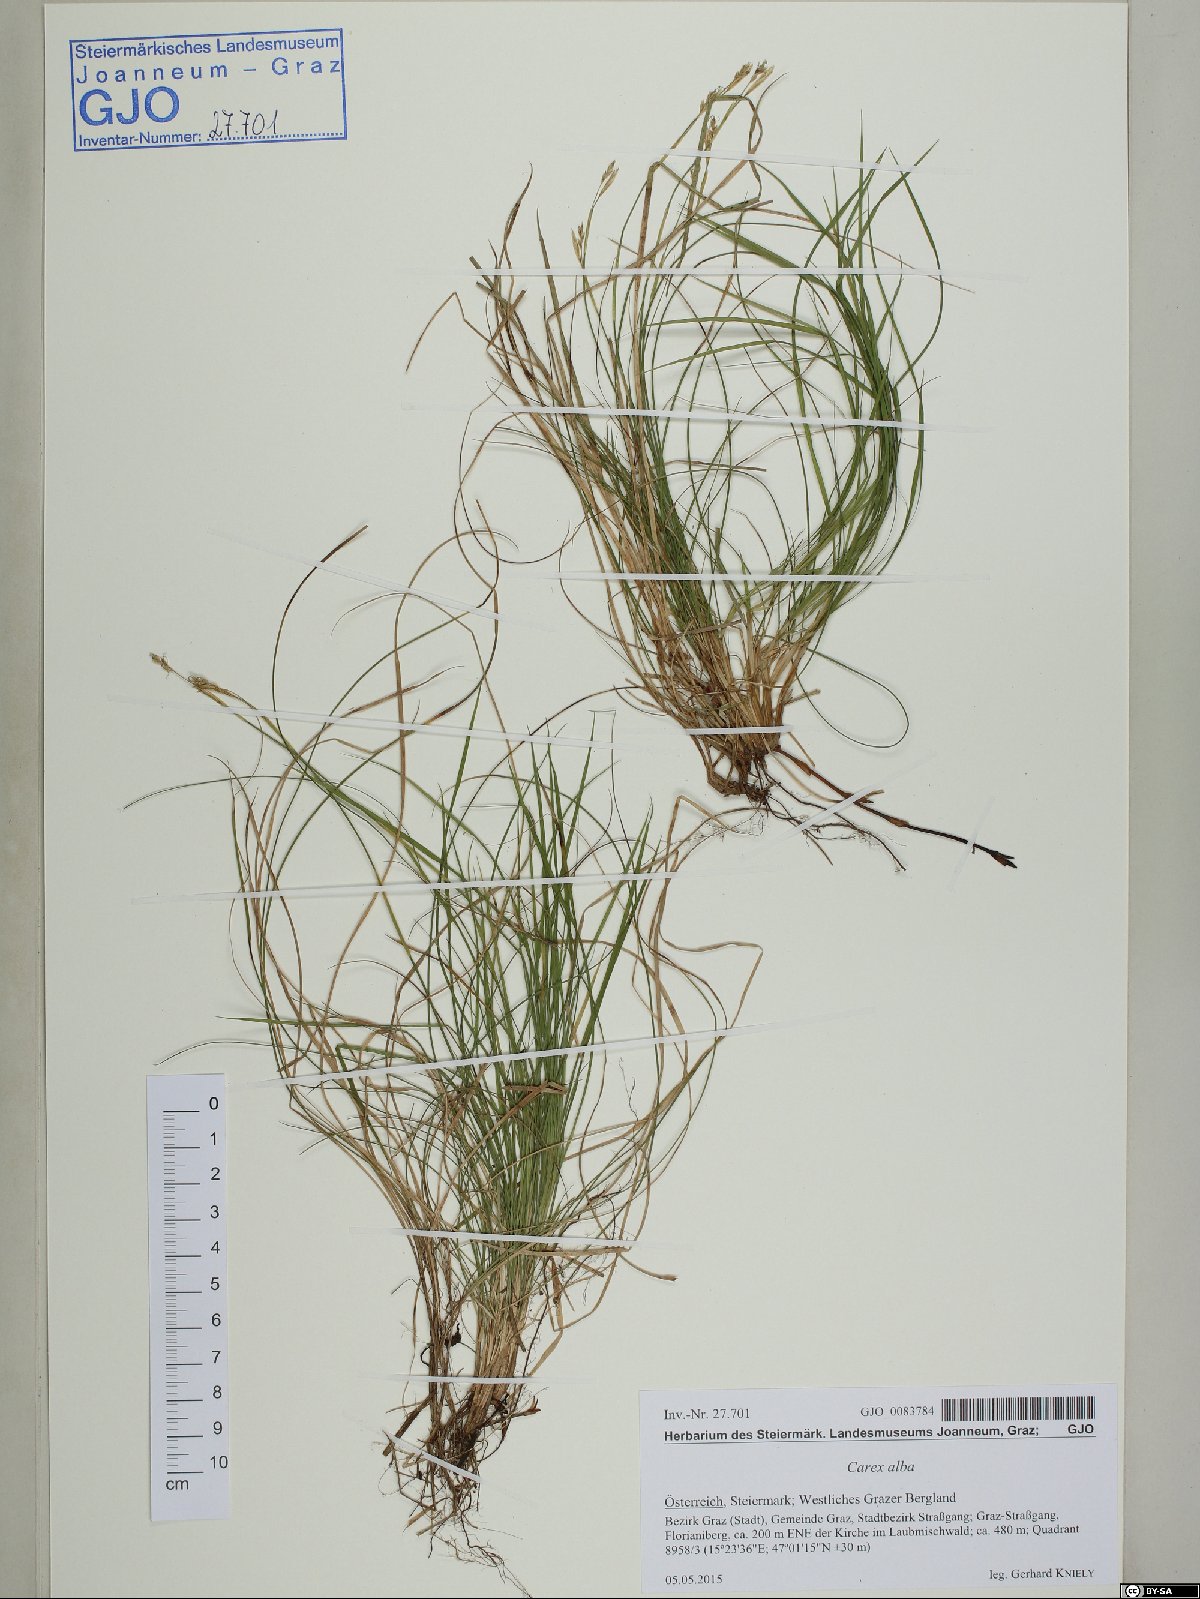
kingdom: Plantae
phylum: Tracheophyta
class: Liliopsida
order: Poales
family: Cyperaceae
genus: Carex
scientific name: Carex alba
